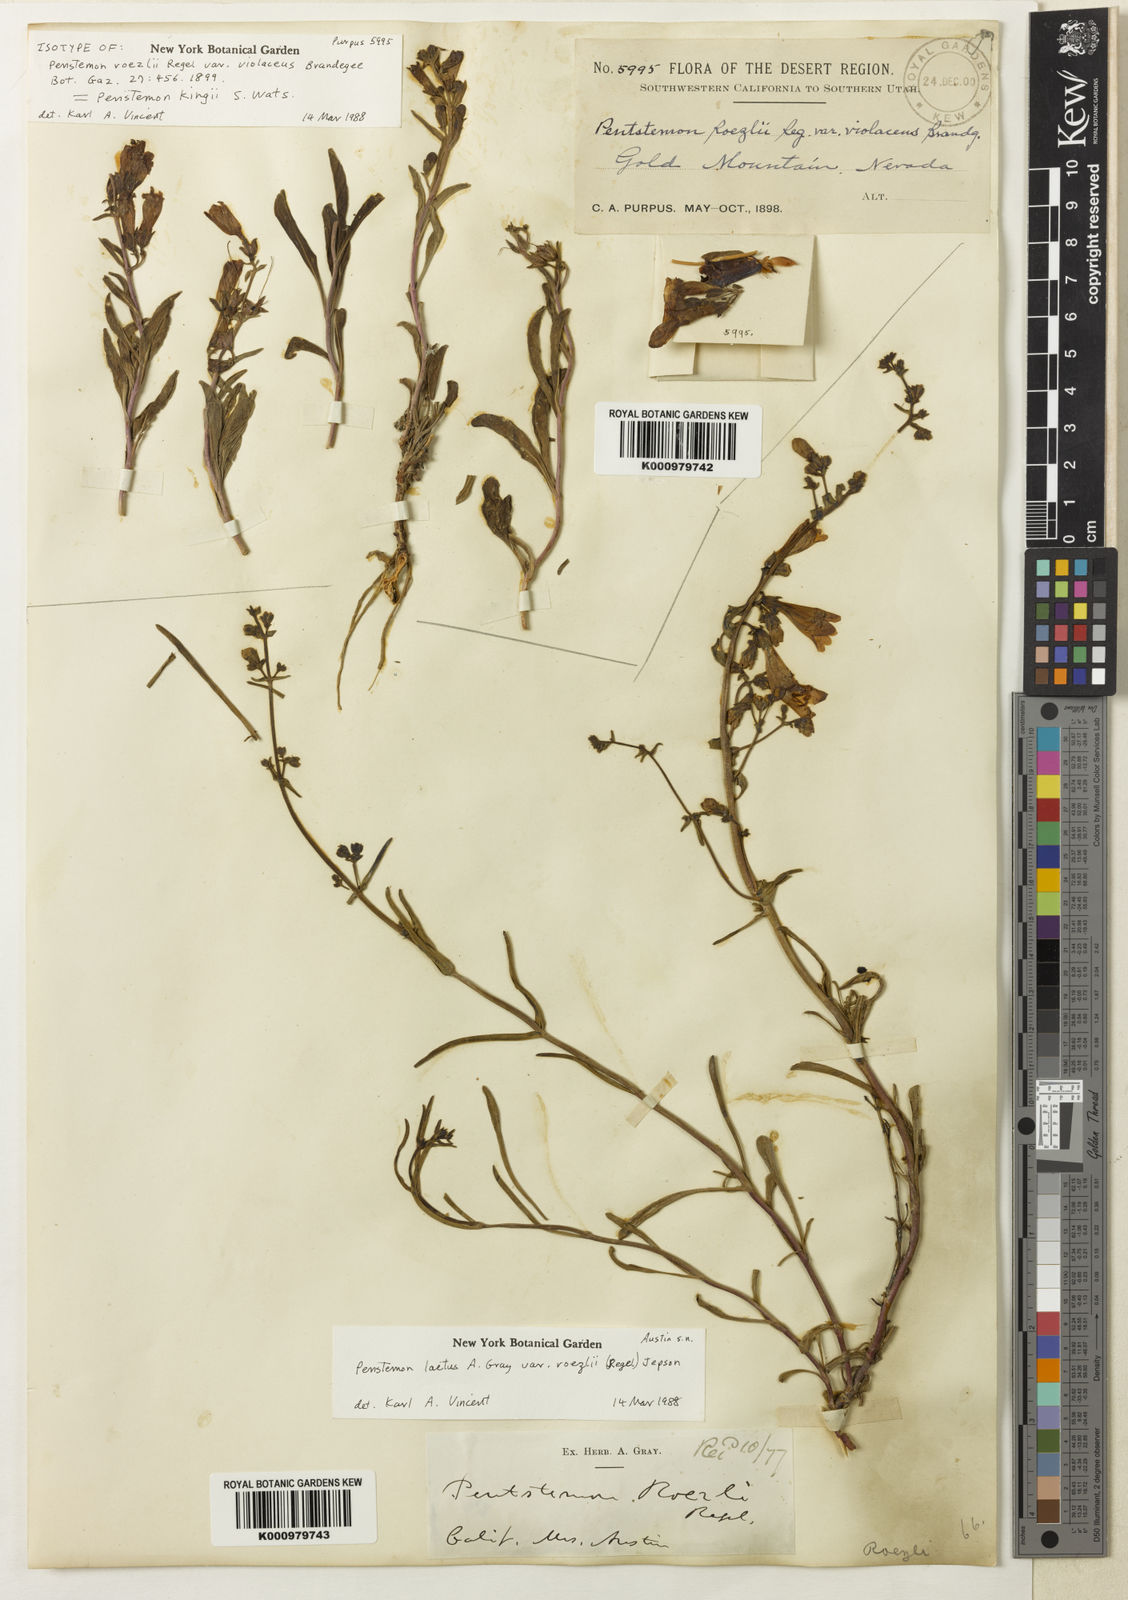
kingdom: Plantae
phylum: Tracheophyta
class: Magnoliopsida
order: Lamiales
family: Plantaginaceae
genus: Penstemon
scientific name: Penstemon
